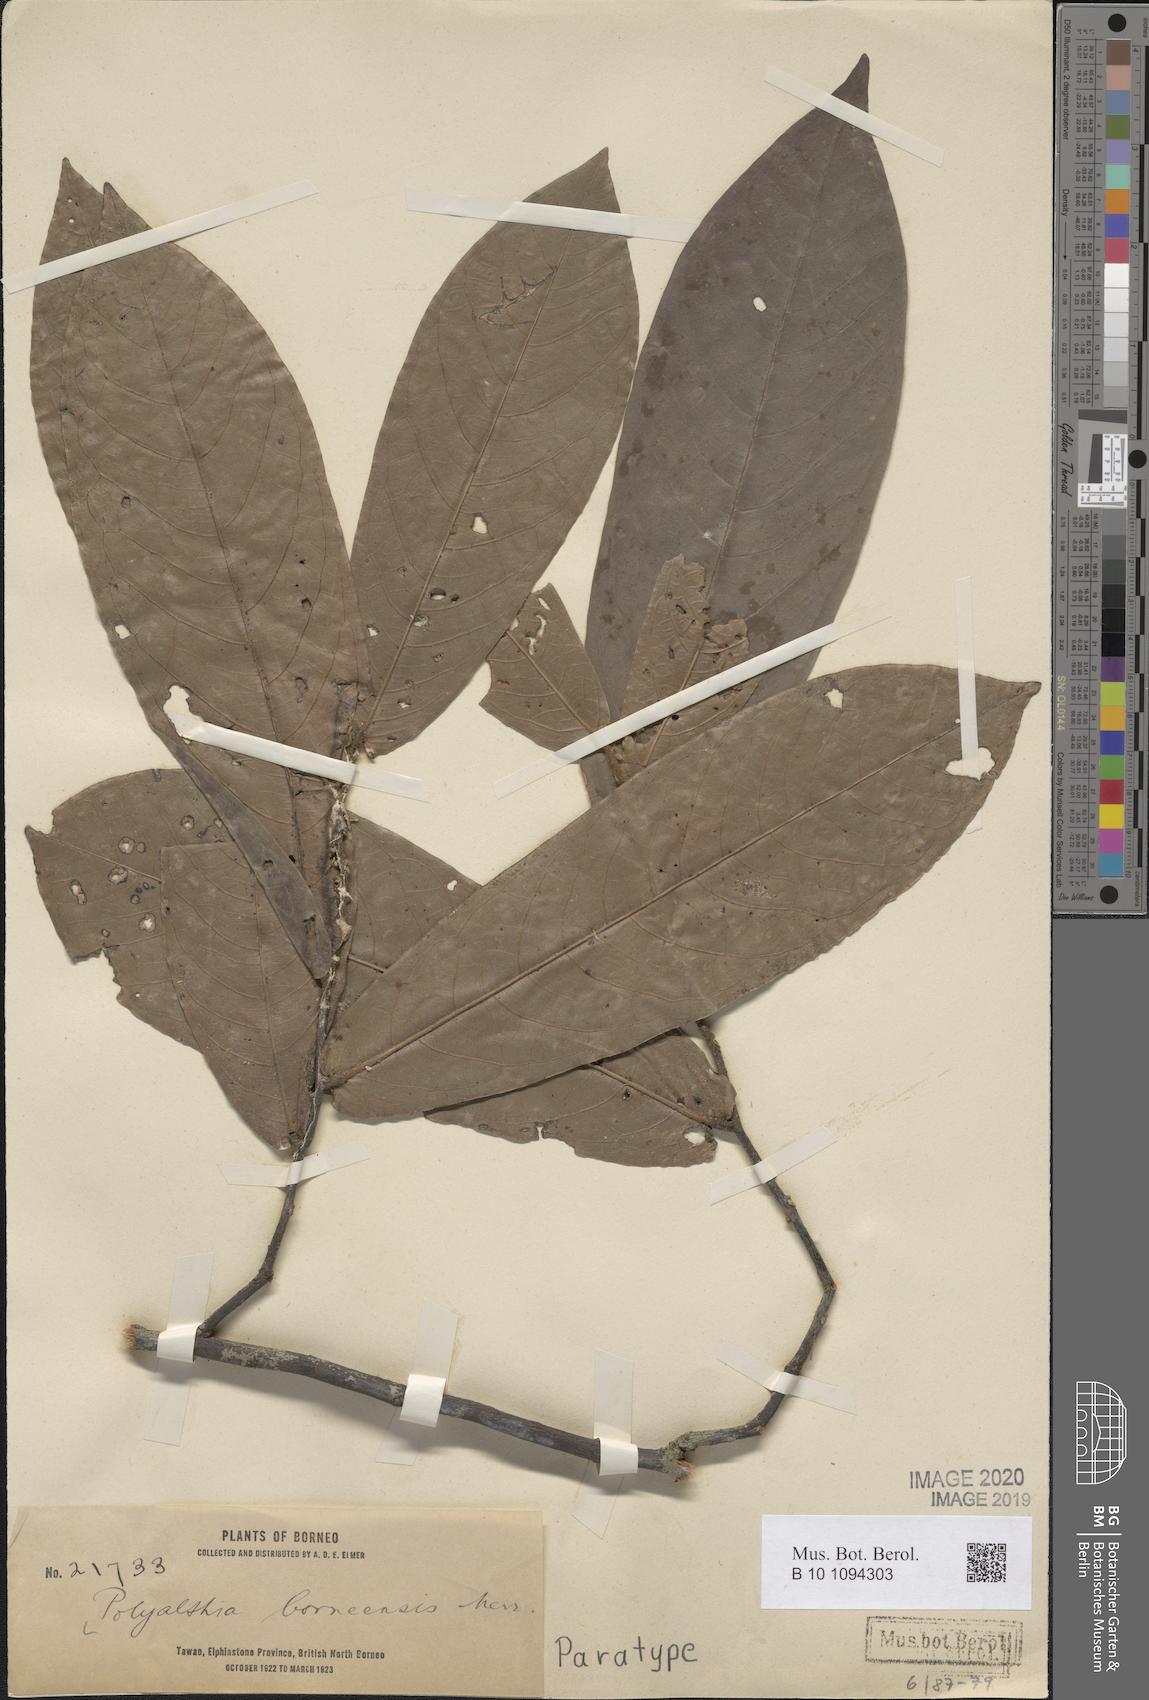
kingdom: Plantae
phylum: Tracheophyta
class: Magnoliopsida
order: Magnoliales
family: Annonaceae
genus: Polyalthia
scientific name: Polyalthia borneensis
